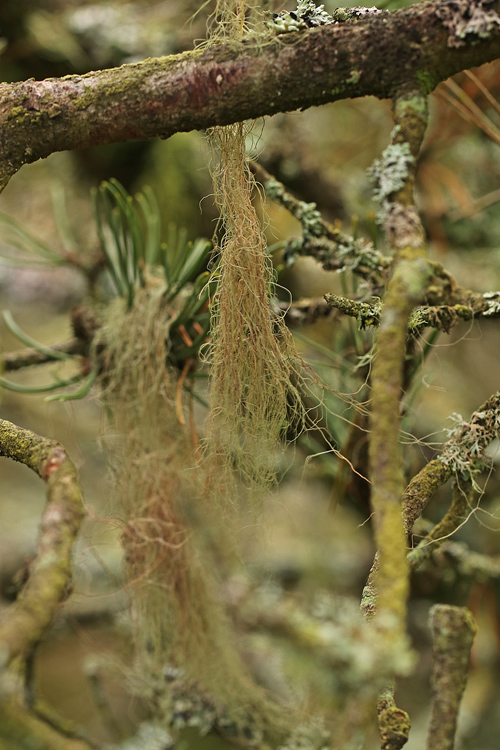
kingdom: Fungi
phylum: Ascomycota
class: Lecanoromycetes
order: Lecanorales
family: Parmeliaceae
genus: Bryoria
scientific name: Bryoria capillaris
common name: grå mankelav
